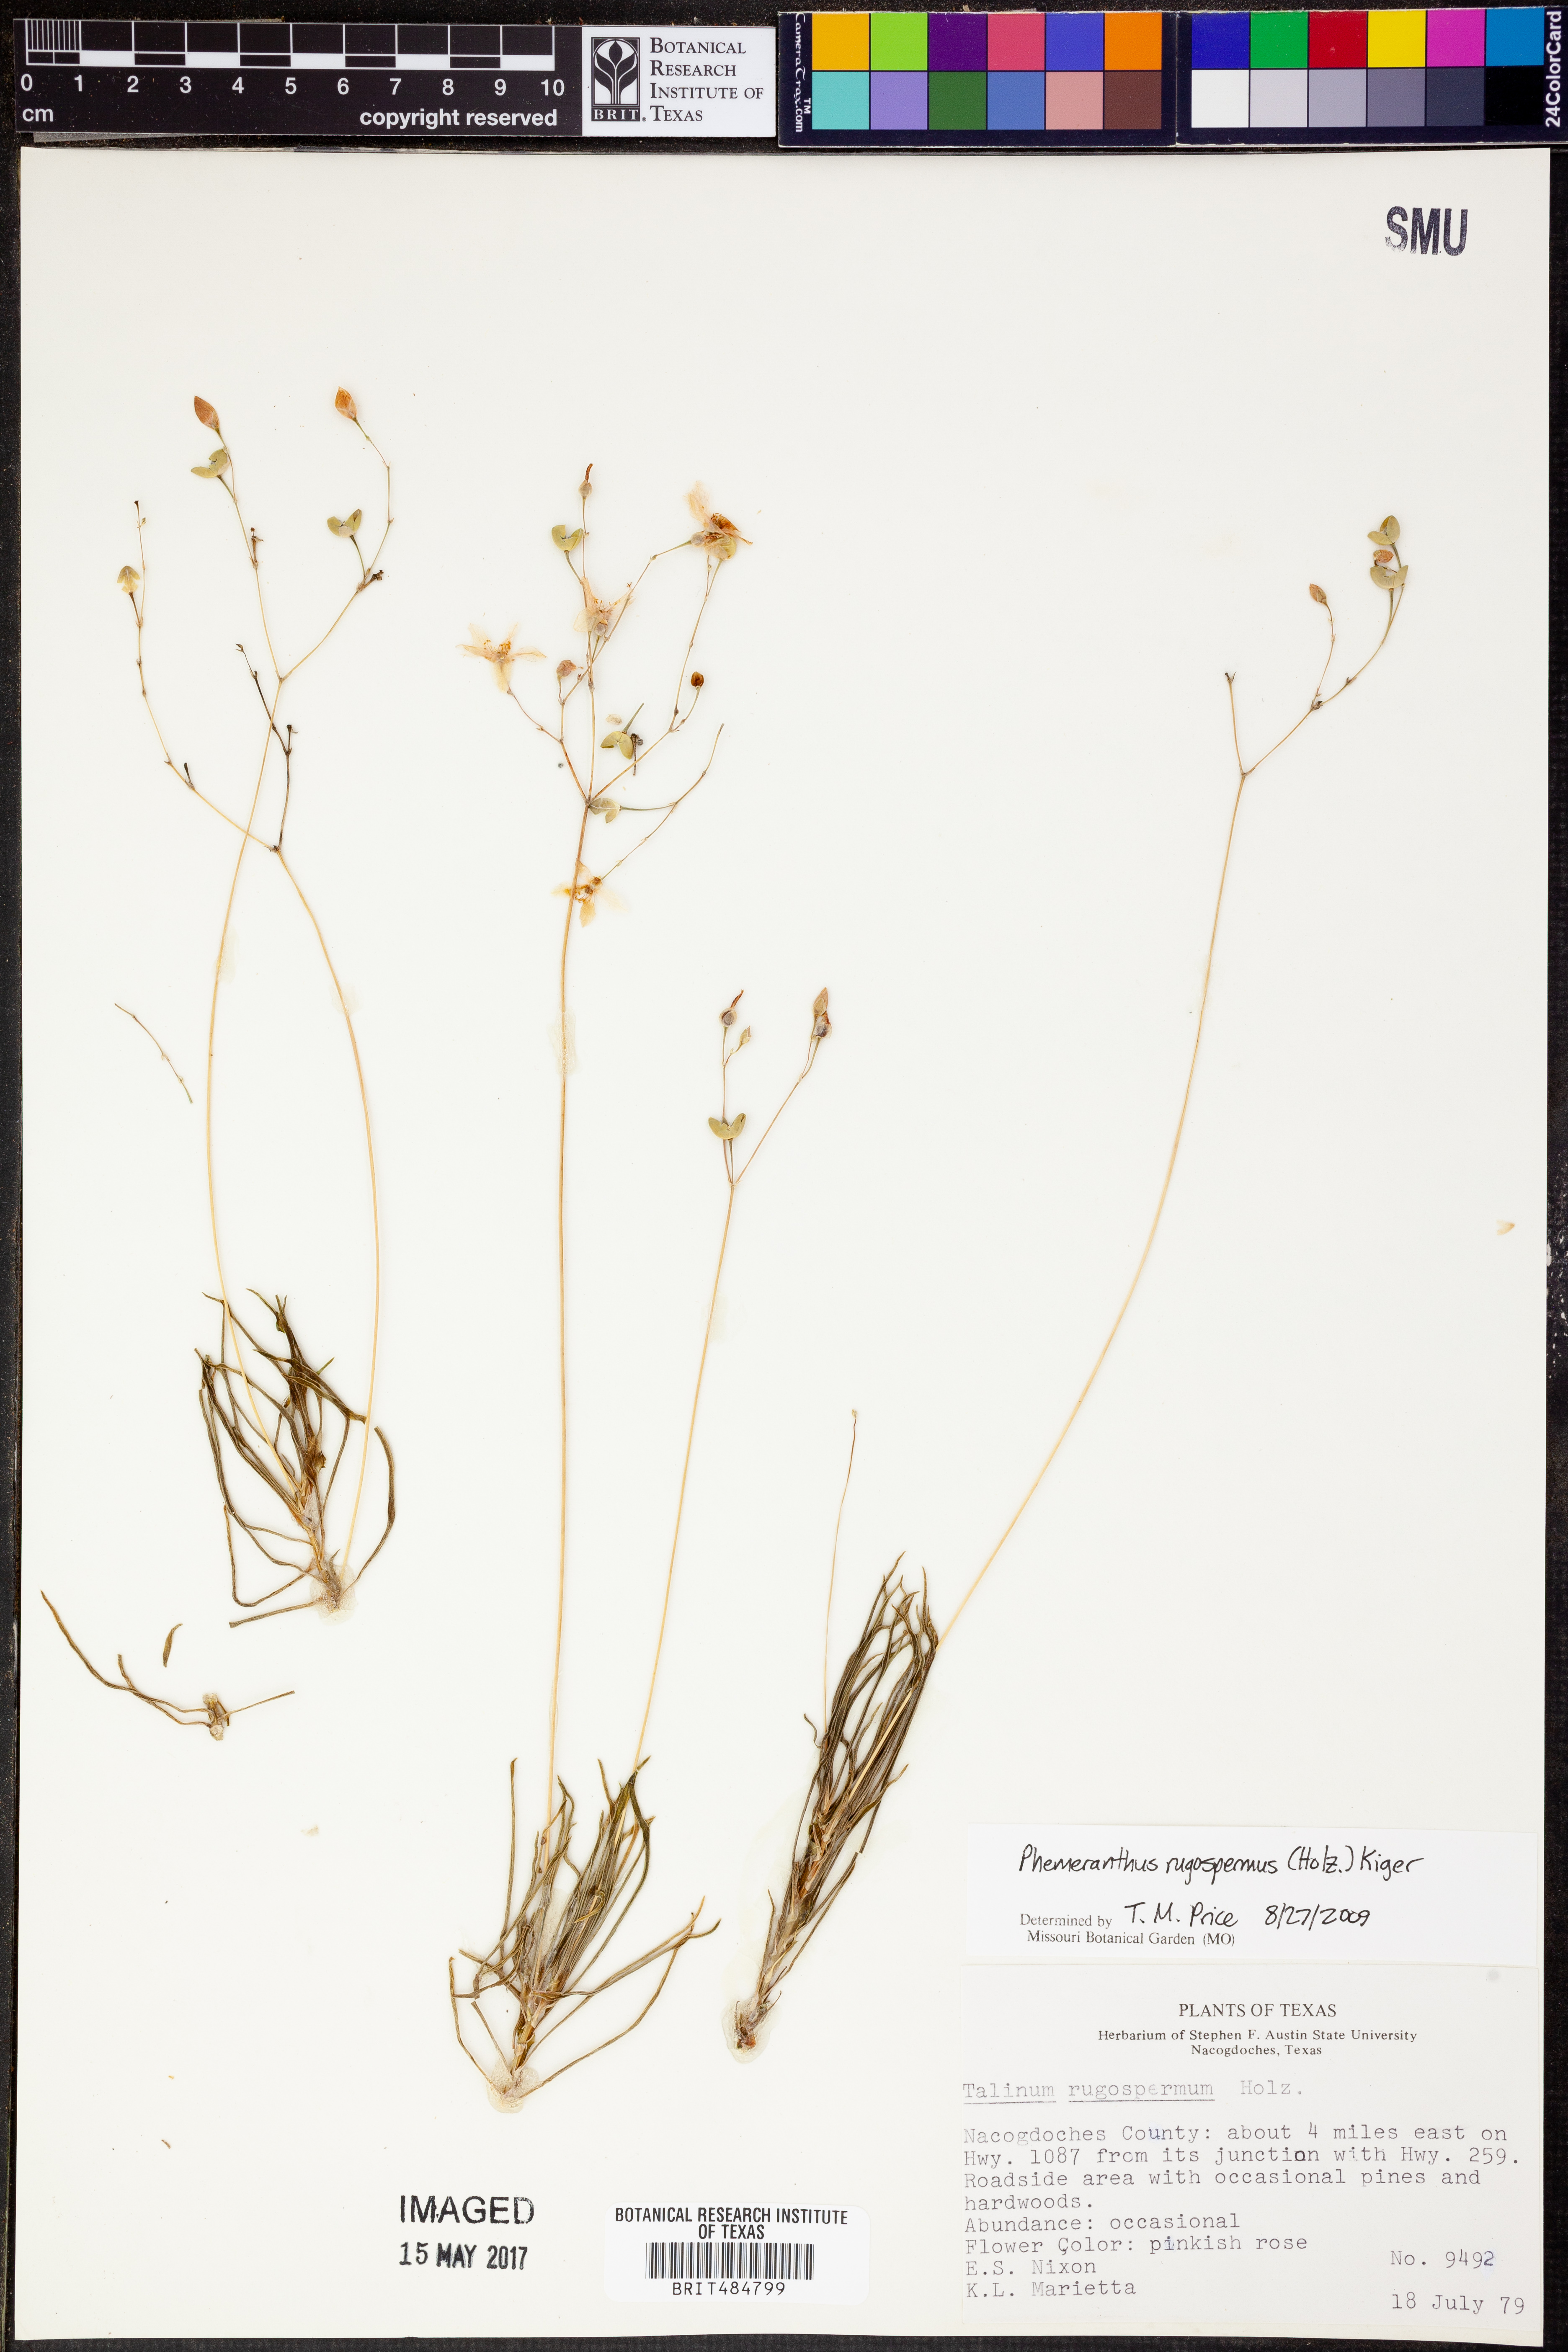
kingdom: Plantae
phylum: Tracheophyta
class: Magnoliopsida
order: Caryophyllales
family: Montiaceae
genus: Phemeranthus
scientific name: Phemeranthus rugospermus
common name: Prairie fameflower
